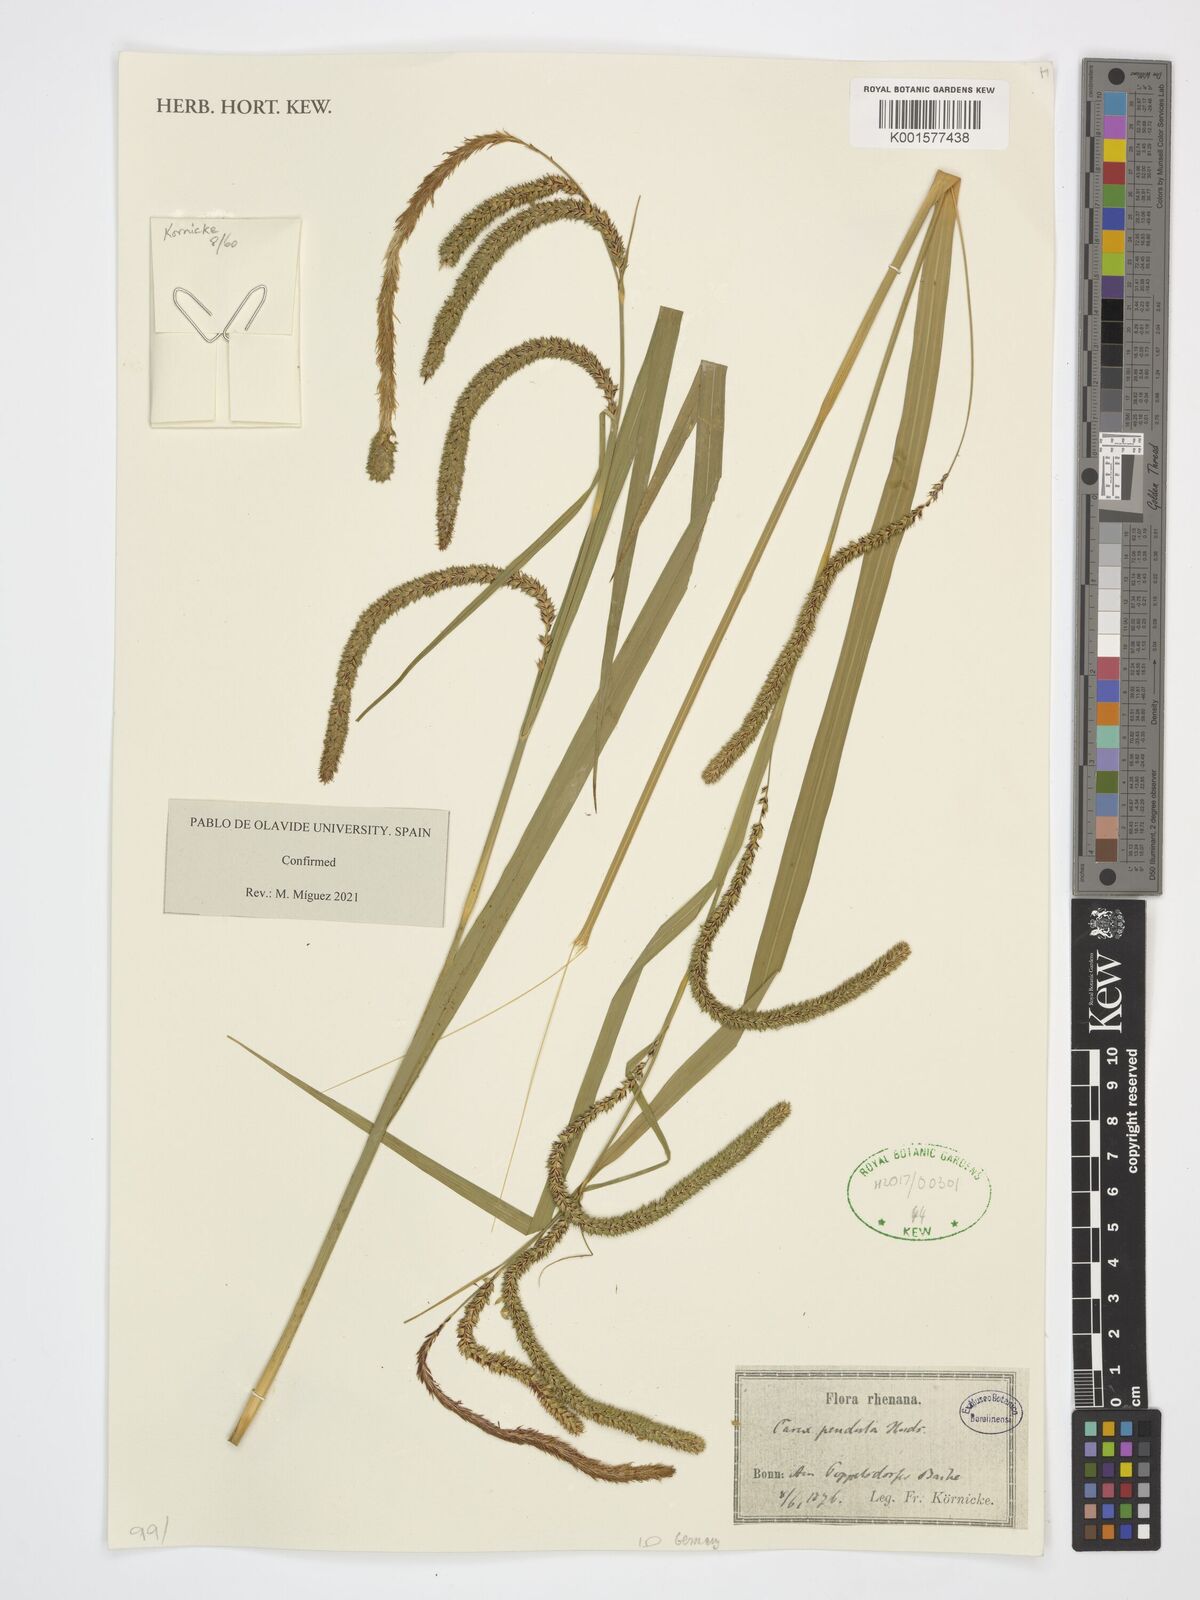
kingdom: Plantae
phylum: Tracheophyta
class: Liliopsida
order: Poales
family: Cyperaceae
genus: Carex
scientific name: Carex pendula
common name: Pendulous sedge
